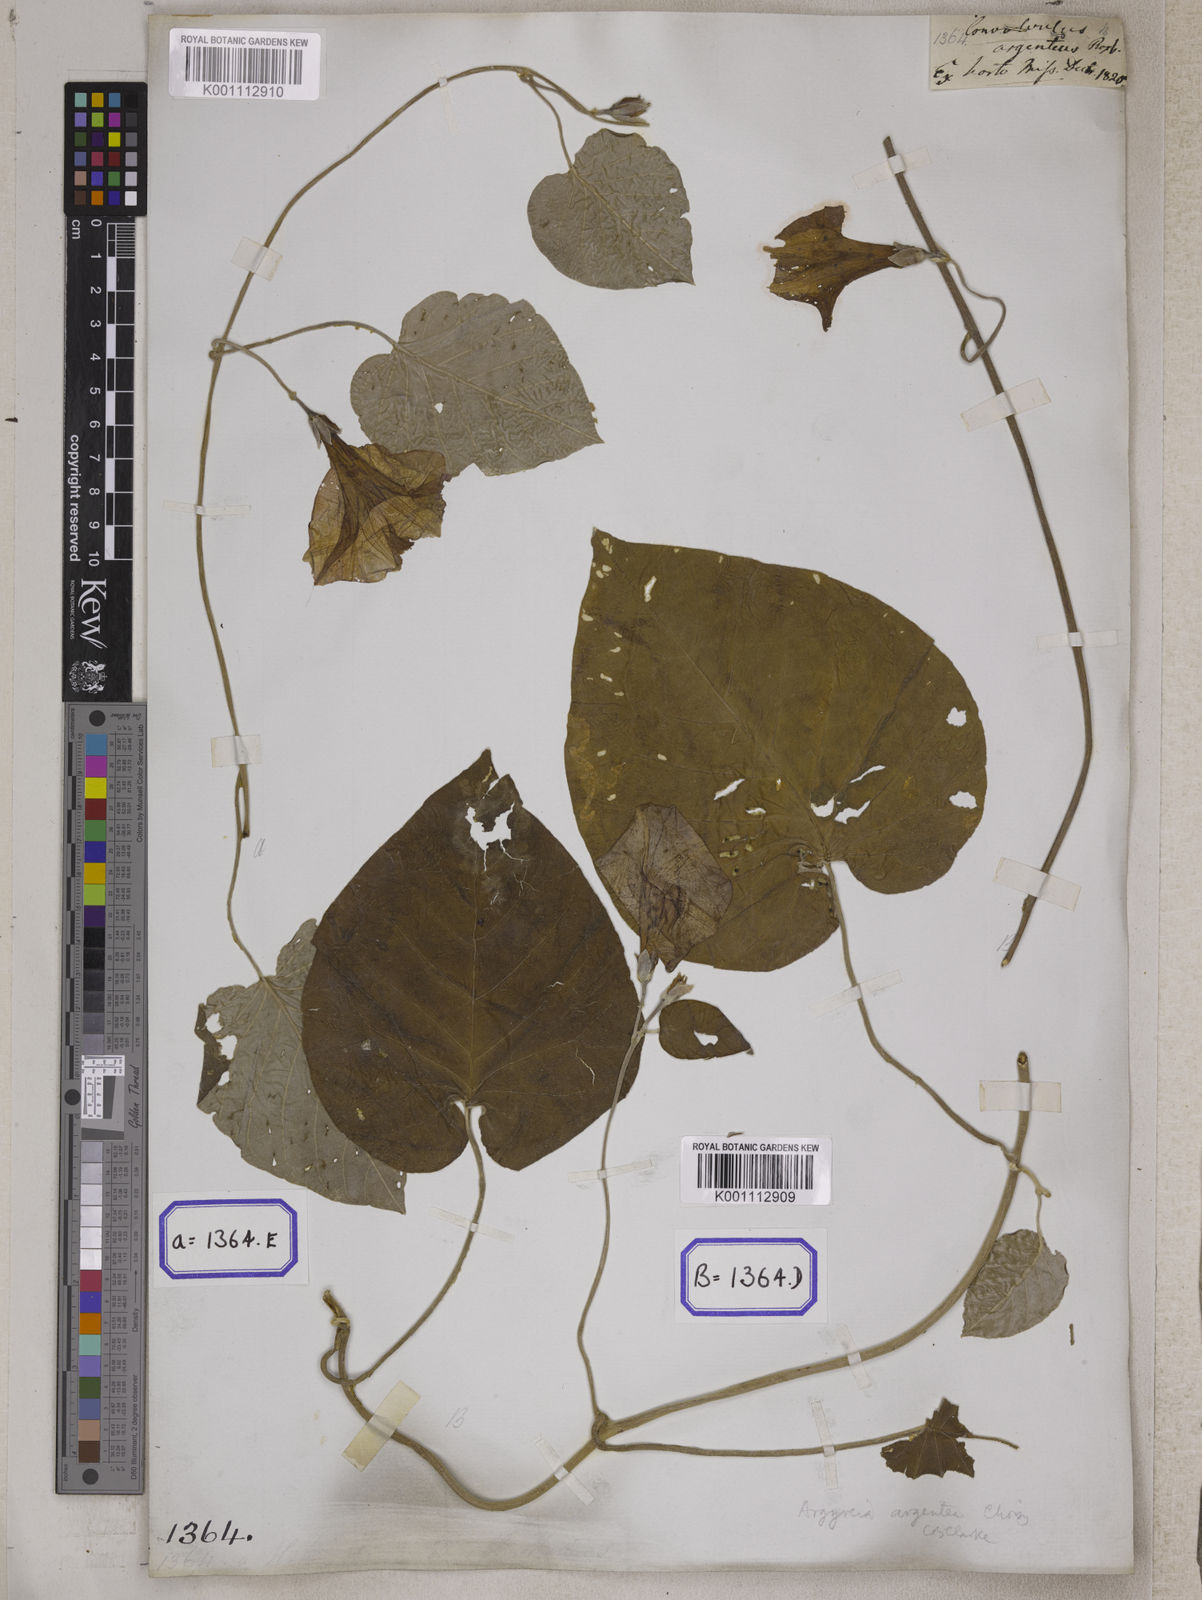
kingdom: Plantae
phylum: Tracheophyta
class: Magnoliopsida
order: Solanales
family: Convolvulaceae
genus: Convolvulus
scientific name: Convolvulus
